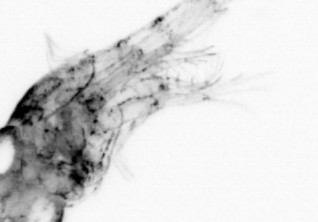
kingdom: Animalia
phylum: Arthropoda
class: Malacostraca
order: Decapoda
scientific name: Decapoda
